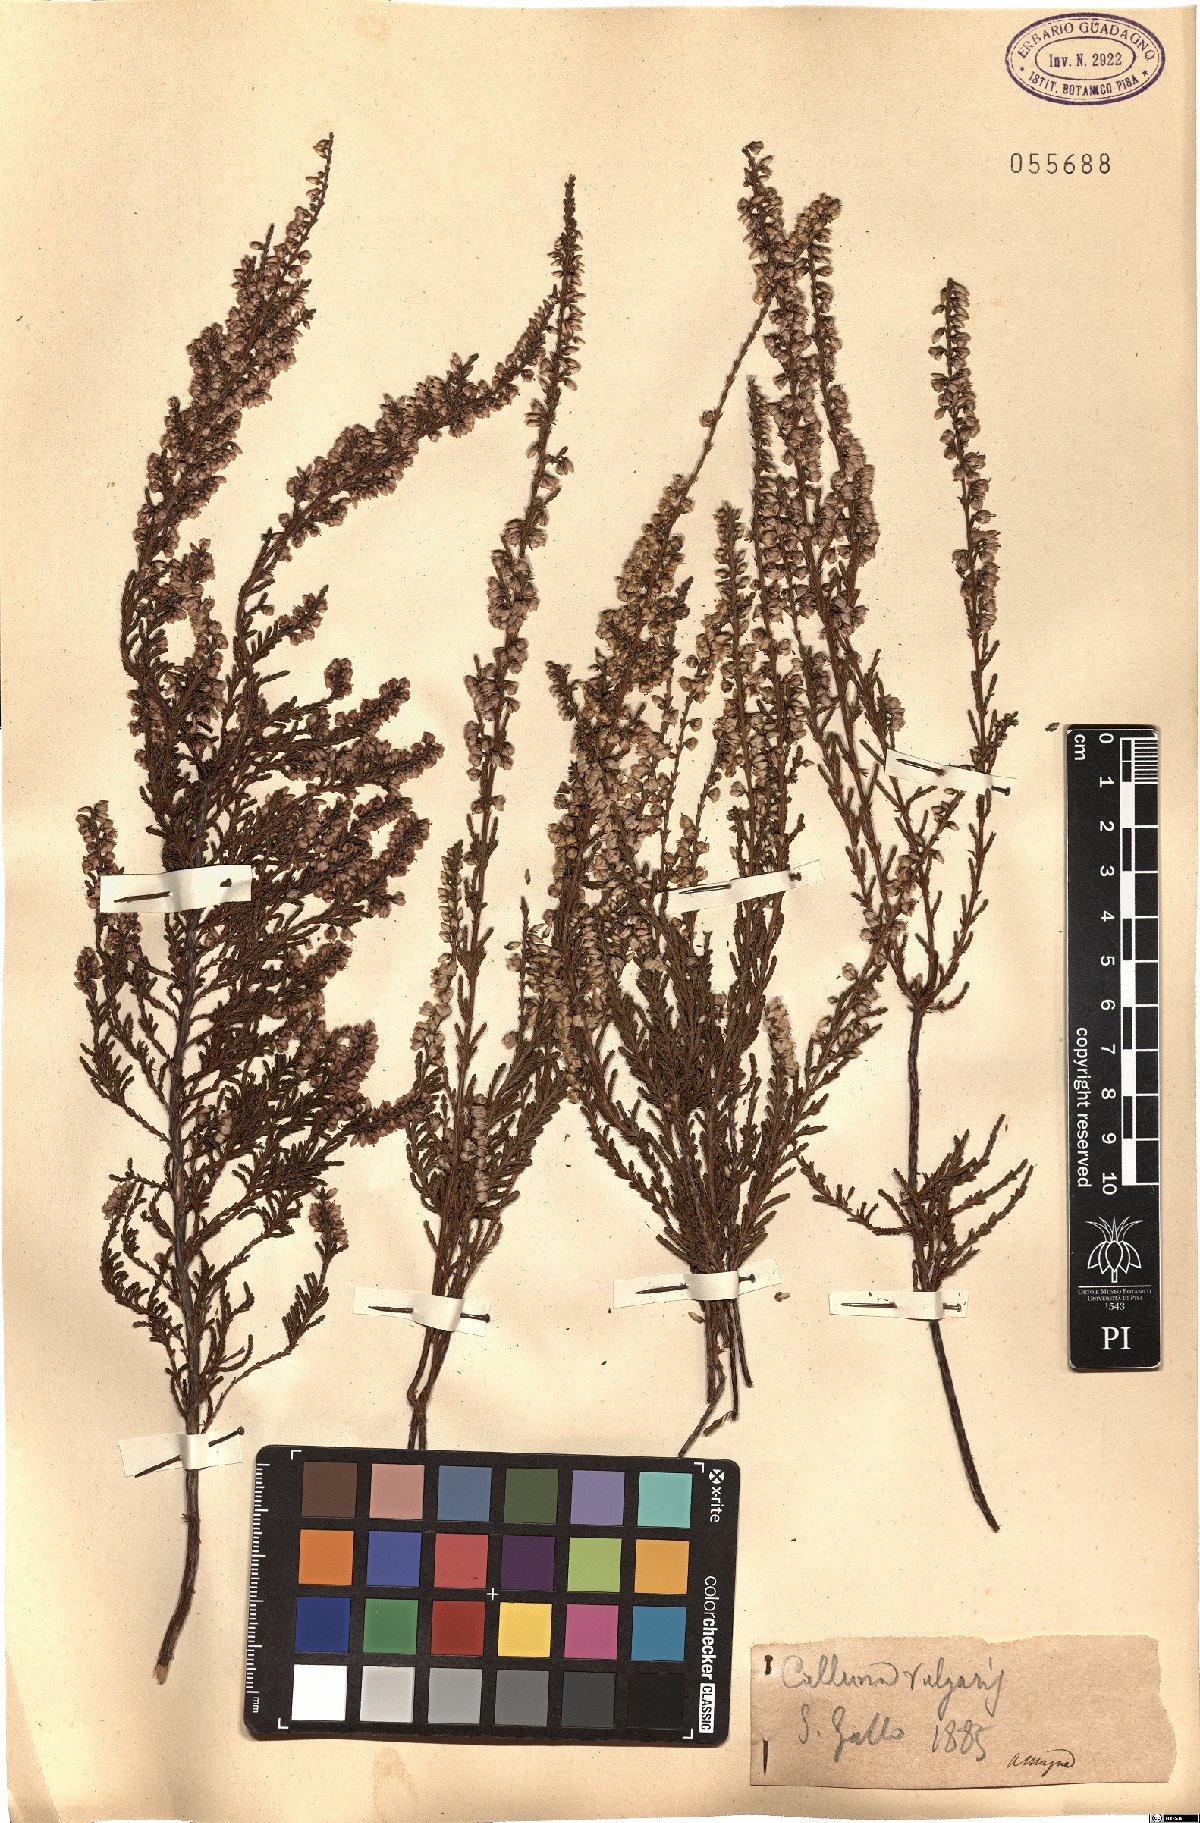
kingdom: Plantae
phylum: Tracheophyta
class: Magnoliopsida
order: Ericales
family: Ericaceae
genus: Calluna
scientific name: Calluna vulgaris
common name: Heather
